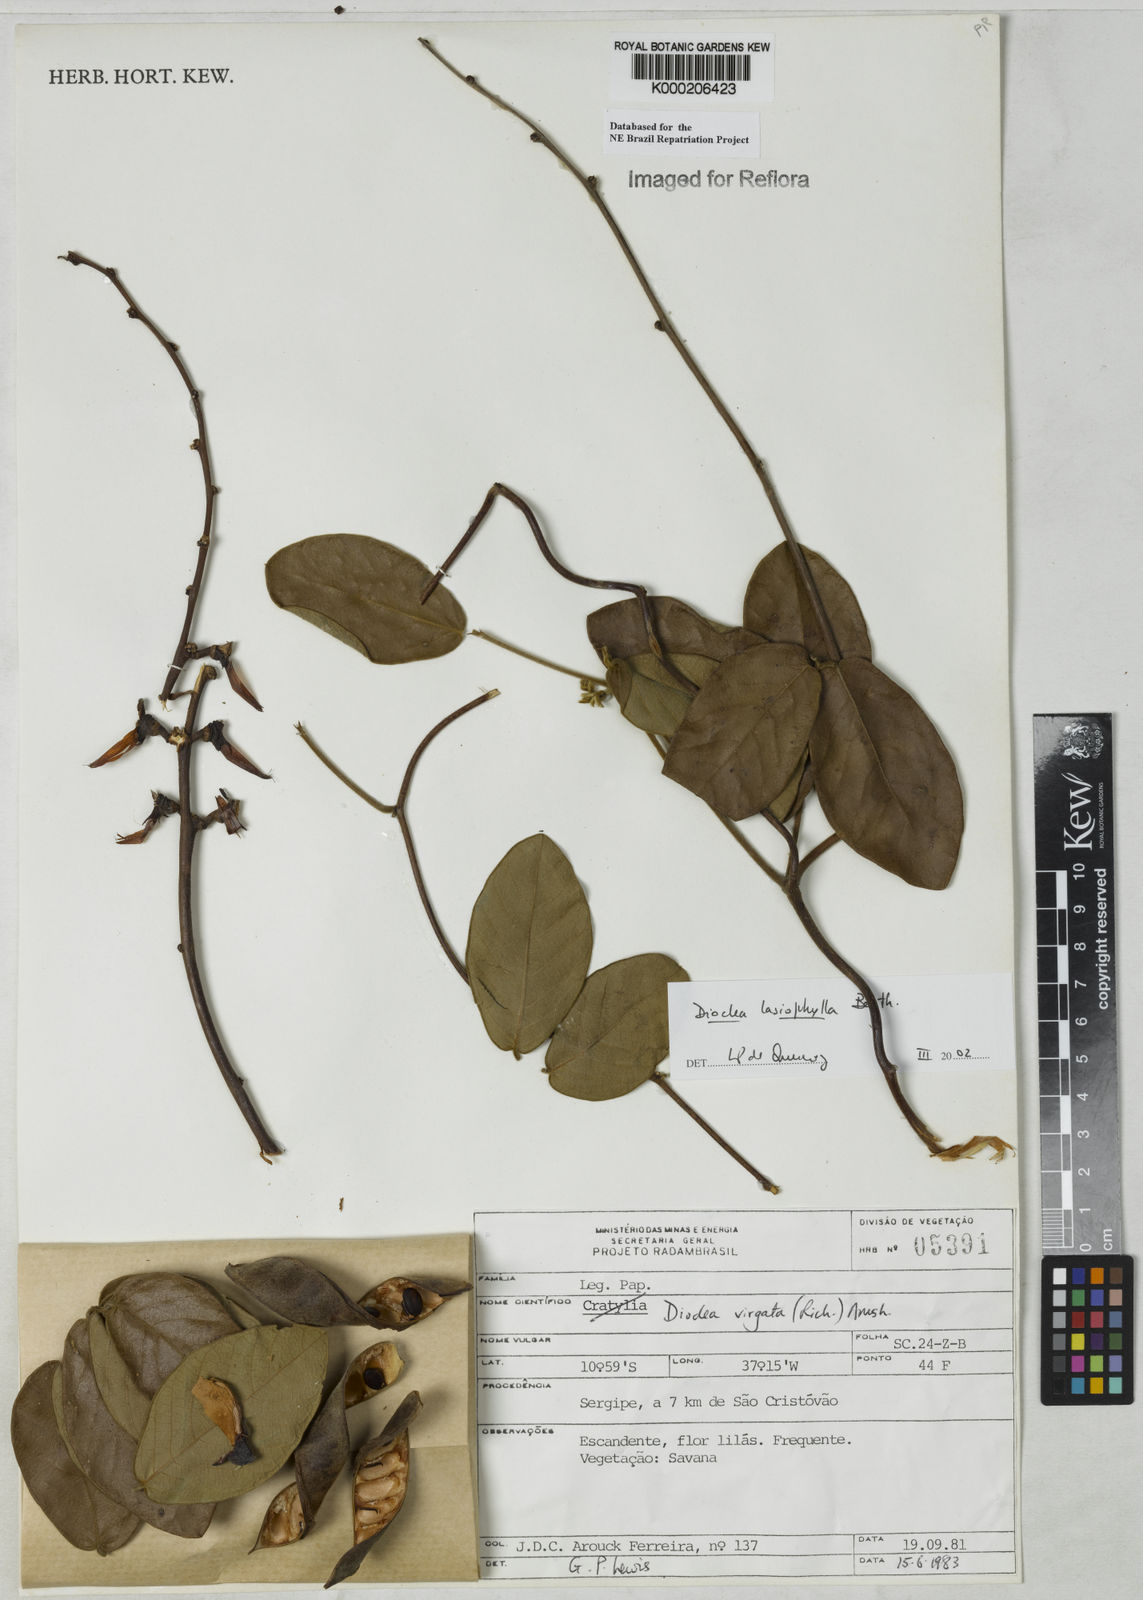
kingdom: Plantae
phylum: Tracheophyta
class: Magnoliopsida
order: Fabales
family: Fabaceae
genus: Dioclea
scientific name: Dioclea lasiophylla
